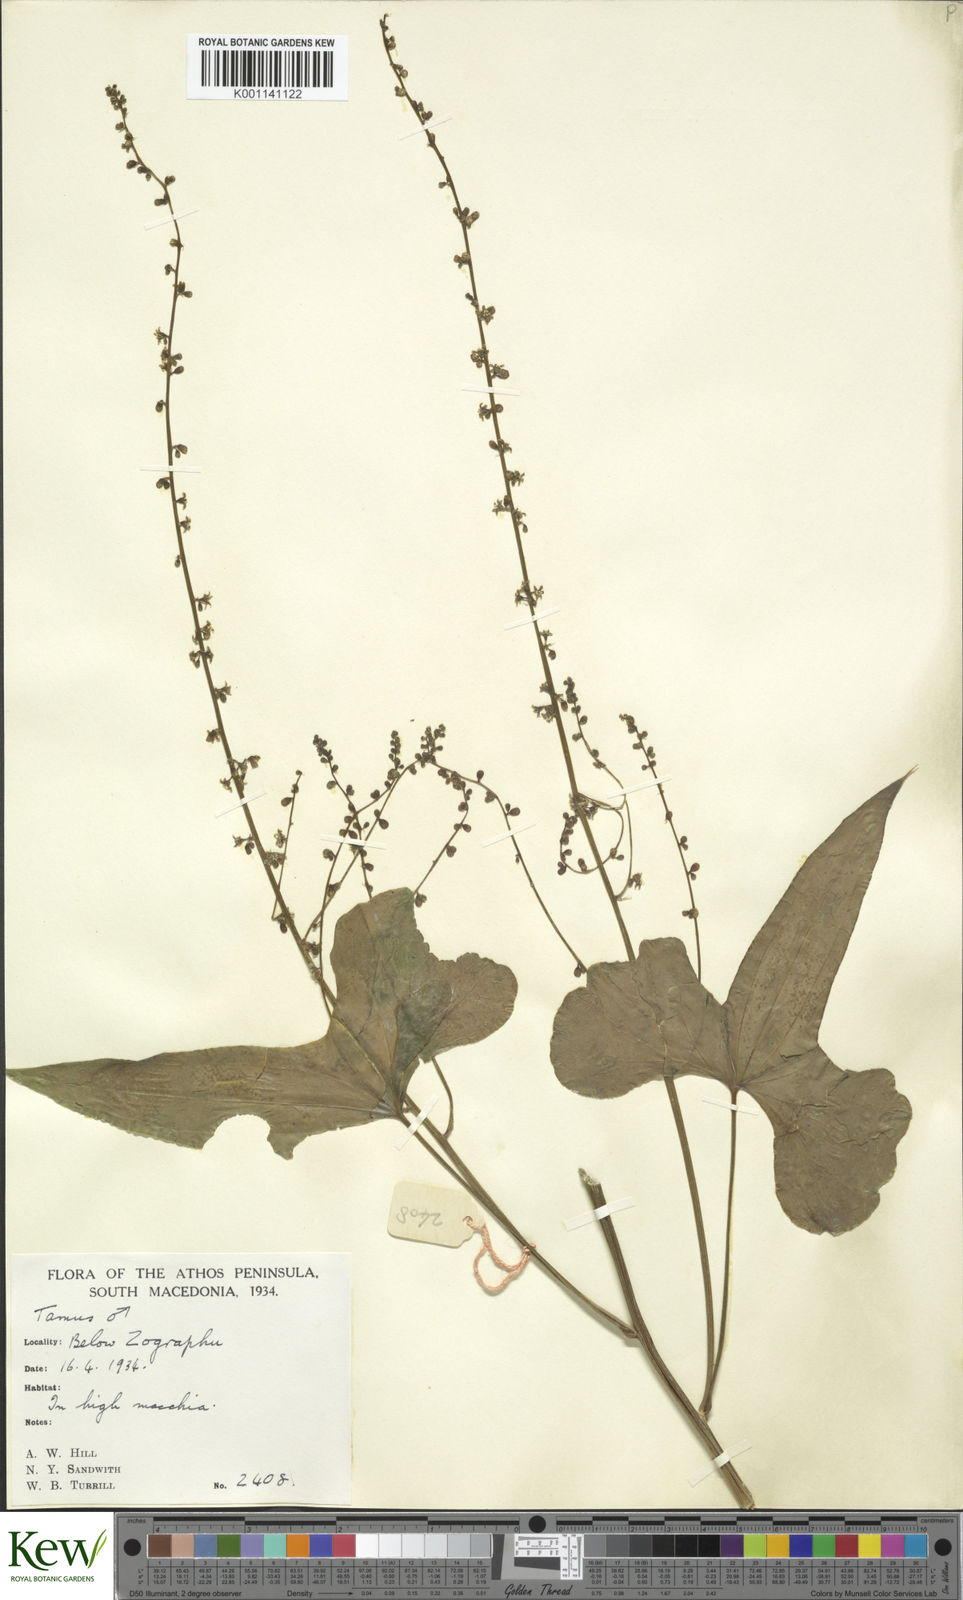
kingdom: Plantae
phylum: Tracheophyta
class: Liliopsida
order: Dioscoreales
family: Dioscoreaceae
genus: Dioscorea
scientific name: Dioscorea communis
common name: Black-bindweed
